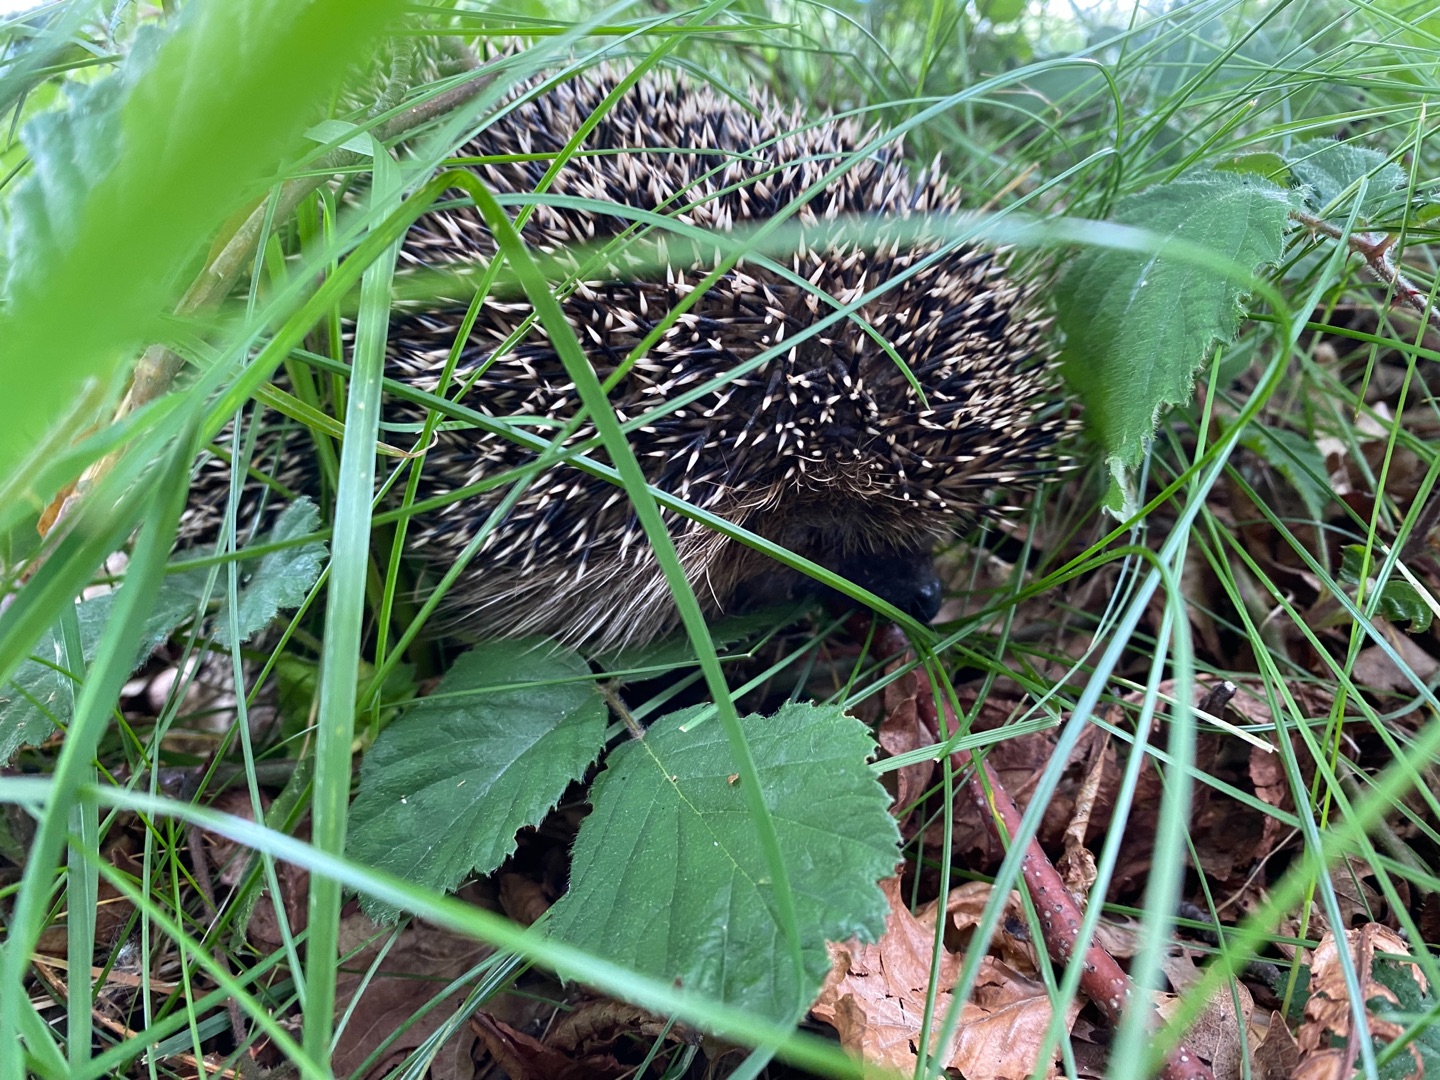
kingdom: Animalia
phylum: Chordata
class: Mammalia
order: Erinaceomorpha
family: Erinaceidae
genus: Erinaceus
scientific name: Erinaceus europaeus
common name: Pindsvin
